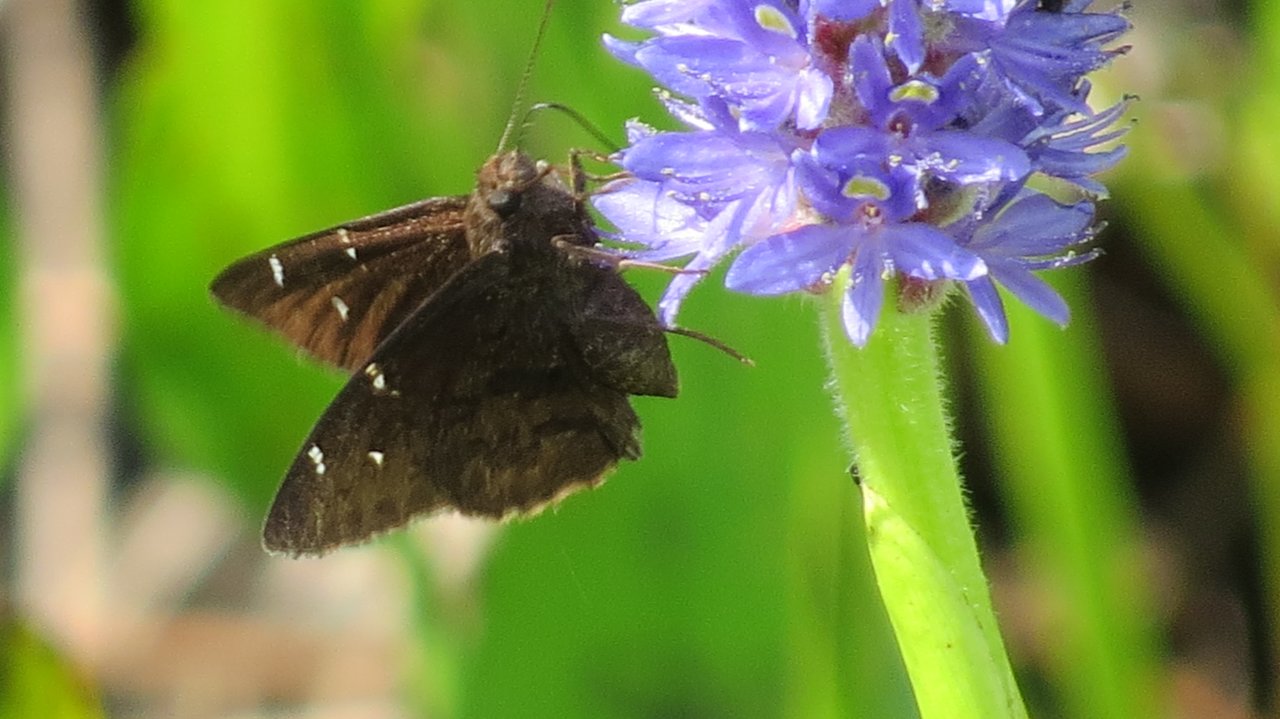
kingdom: Animalia
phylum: Arthropoda
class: Insecta
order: Lepidoptera
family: Hesperiidae
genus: Autochton
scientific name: Autochton
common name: Northern Cloudywing
